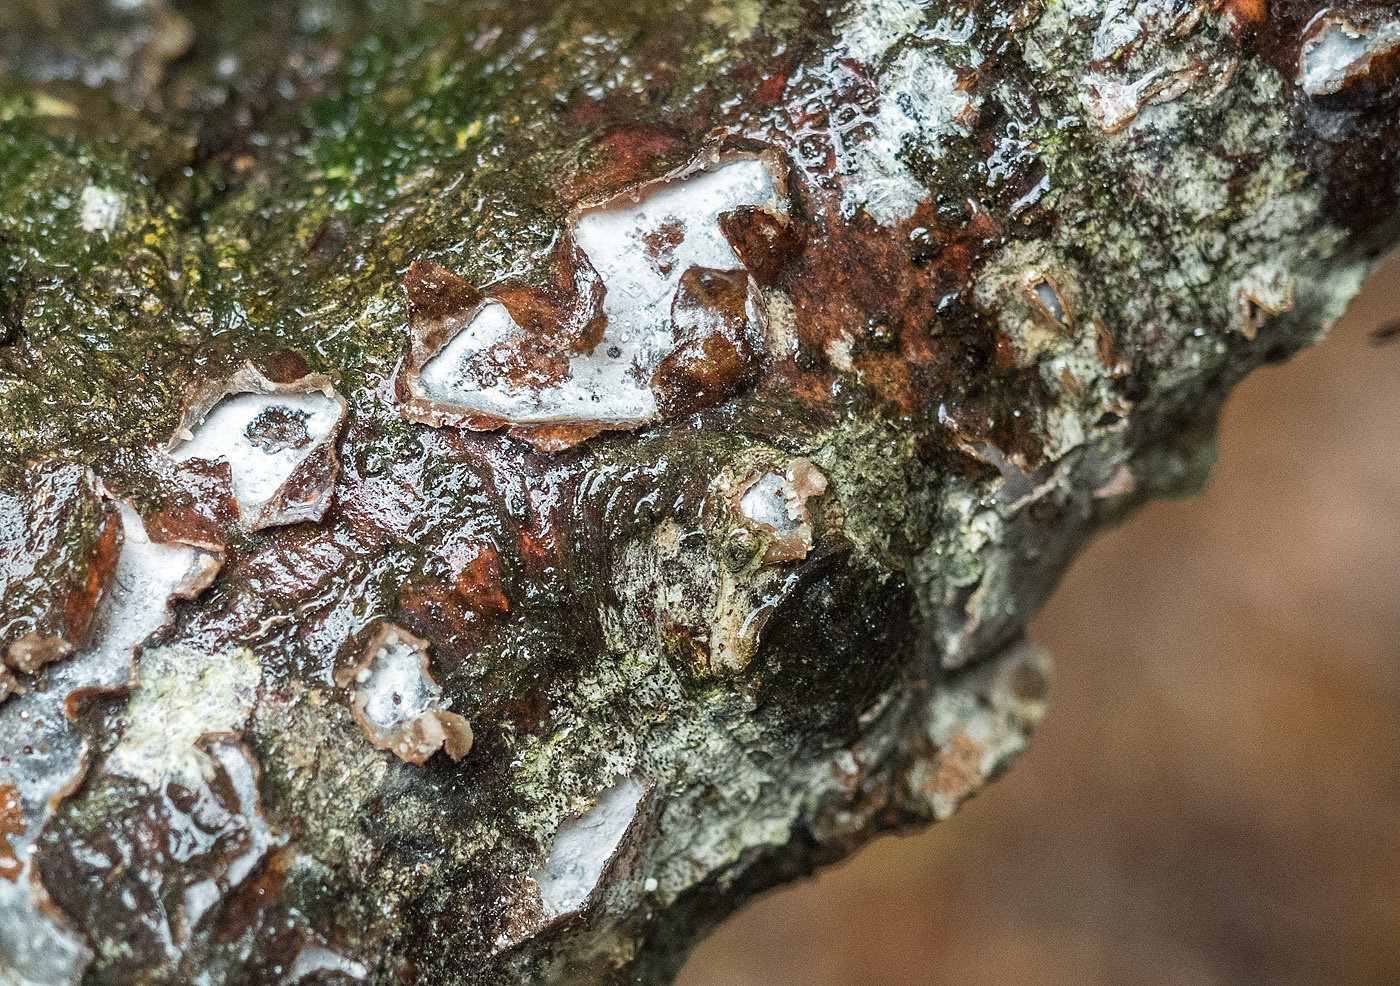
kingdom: Fungi
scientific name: Fungi
